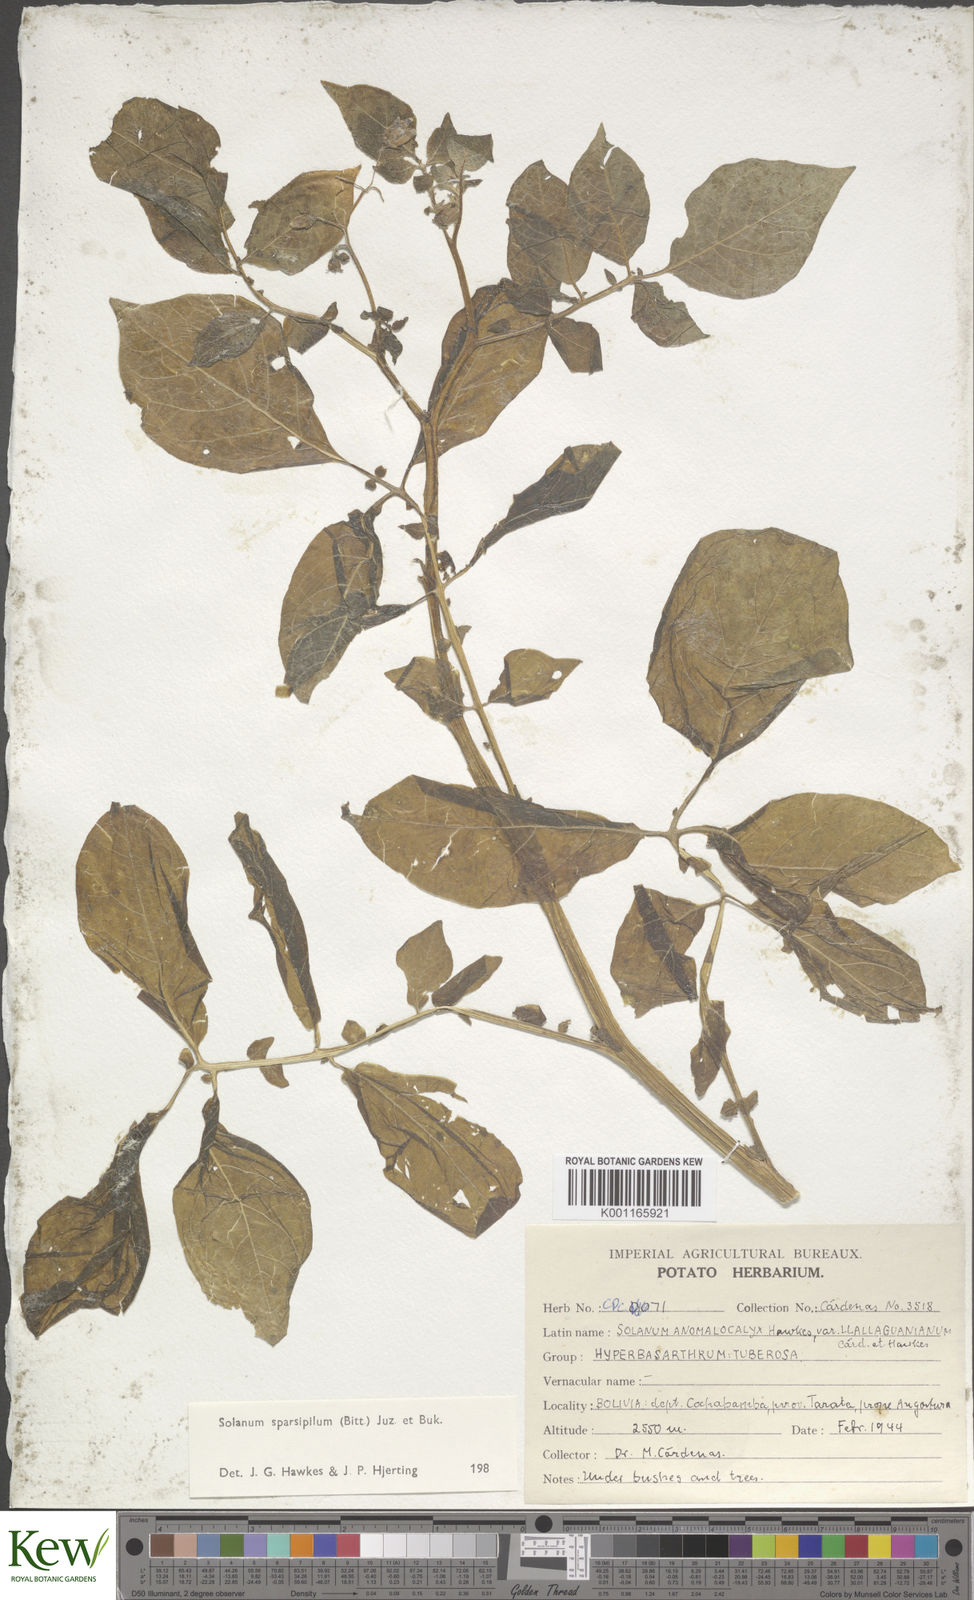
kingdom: Plantae
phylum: Tracheophyta
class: Magnoliopsida
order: Solanales
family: Solanaceae
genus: Solanum
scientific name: Solanum brevicaule
